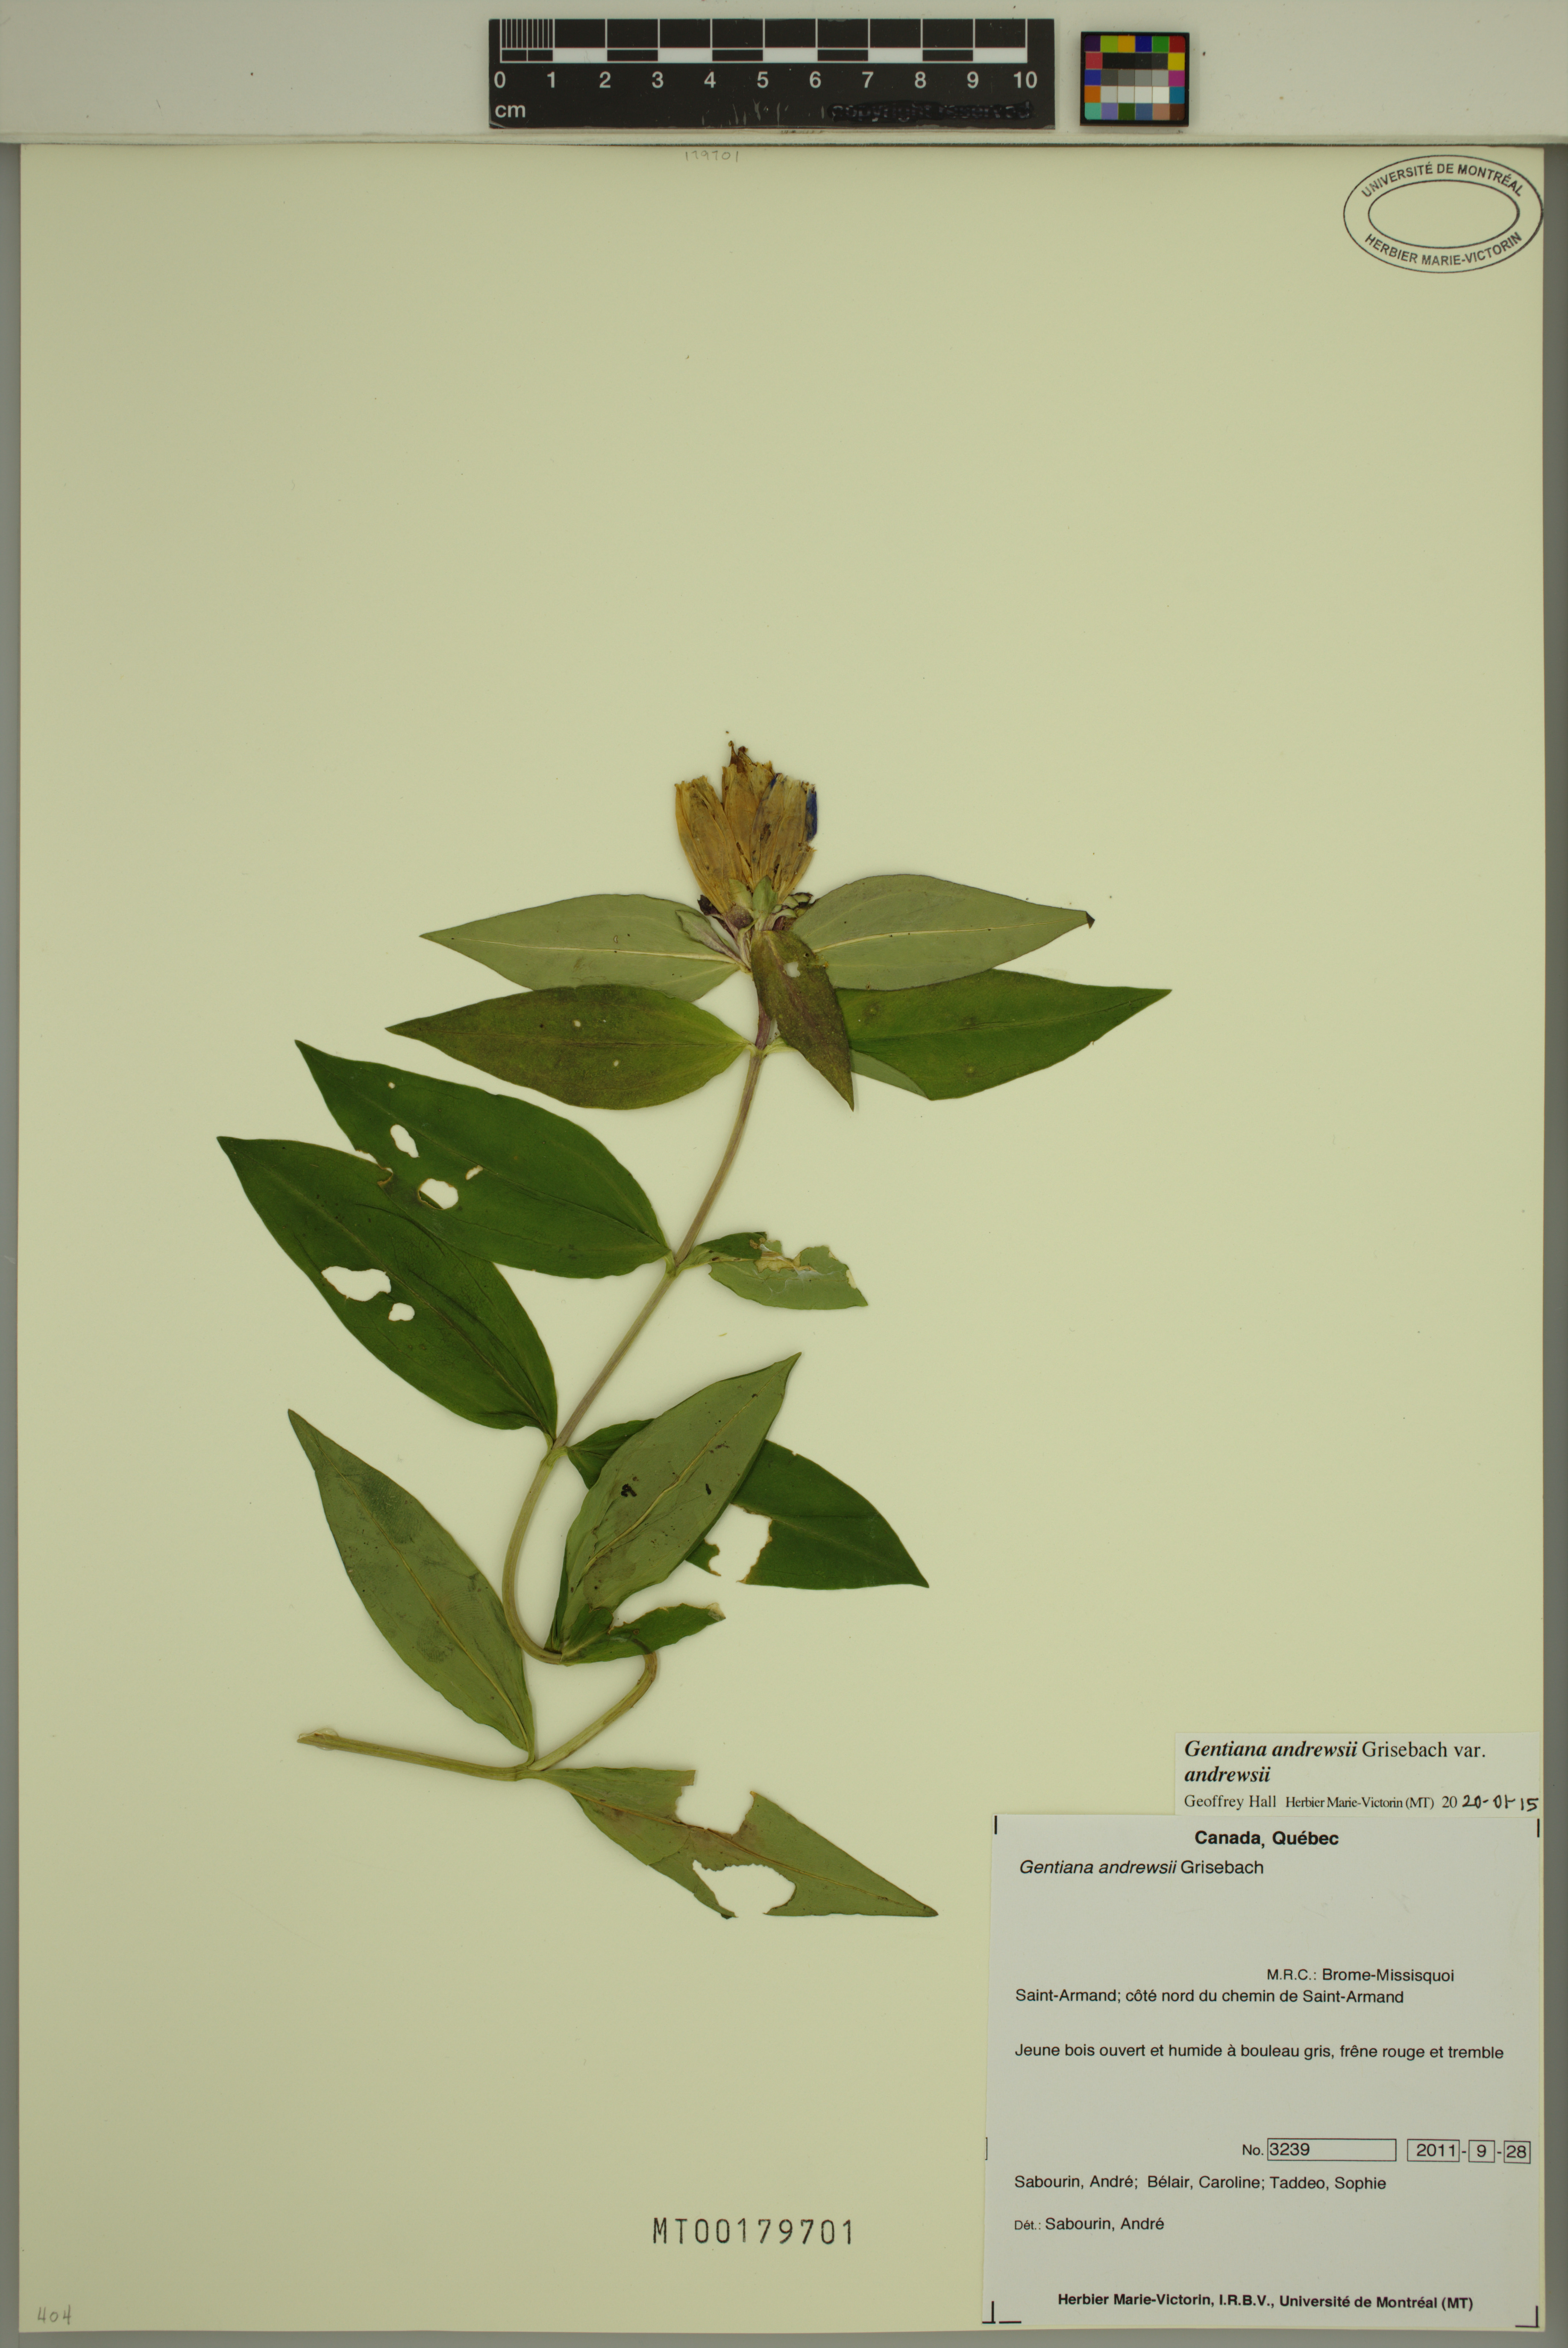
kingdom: Plantae
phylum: Tracheophyta
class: Magnoliopsida
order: Gentianales
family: Gentianaceae
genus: Gentiana
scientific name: Gentiana andrewsii
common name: Bottle gentian
